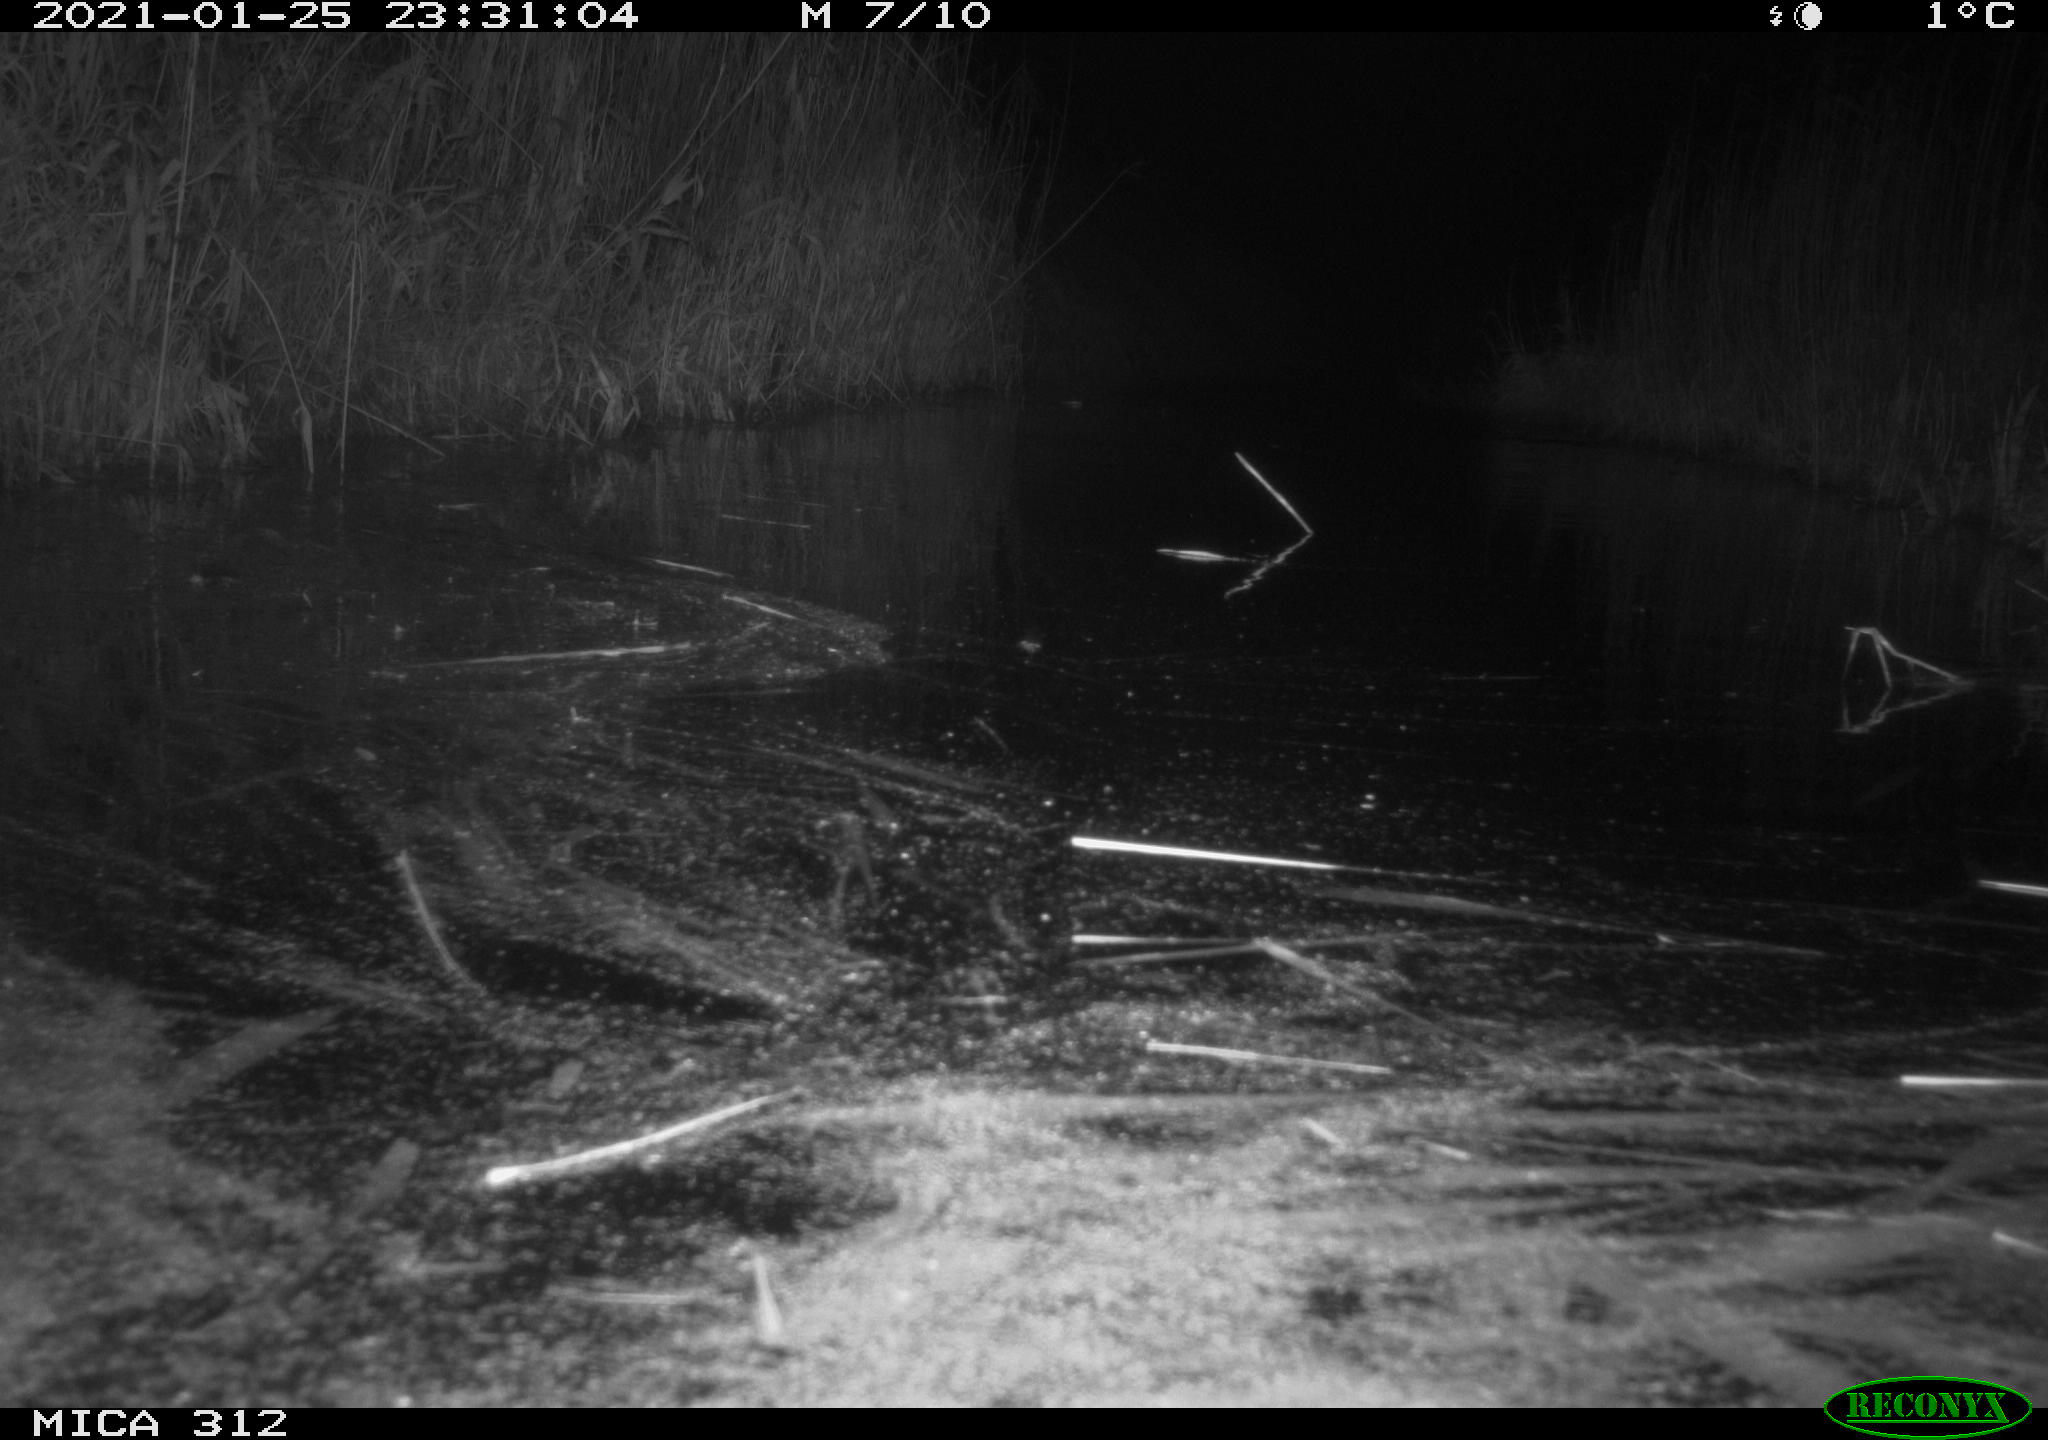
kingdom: Animalia
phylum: Chordata
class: Mammalia
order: Rodentia
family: Muridae
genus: Rattus
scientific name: Rattus norvegicus
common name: Brown rat
